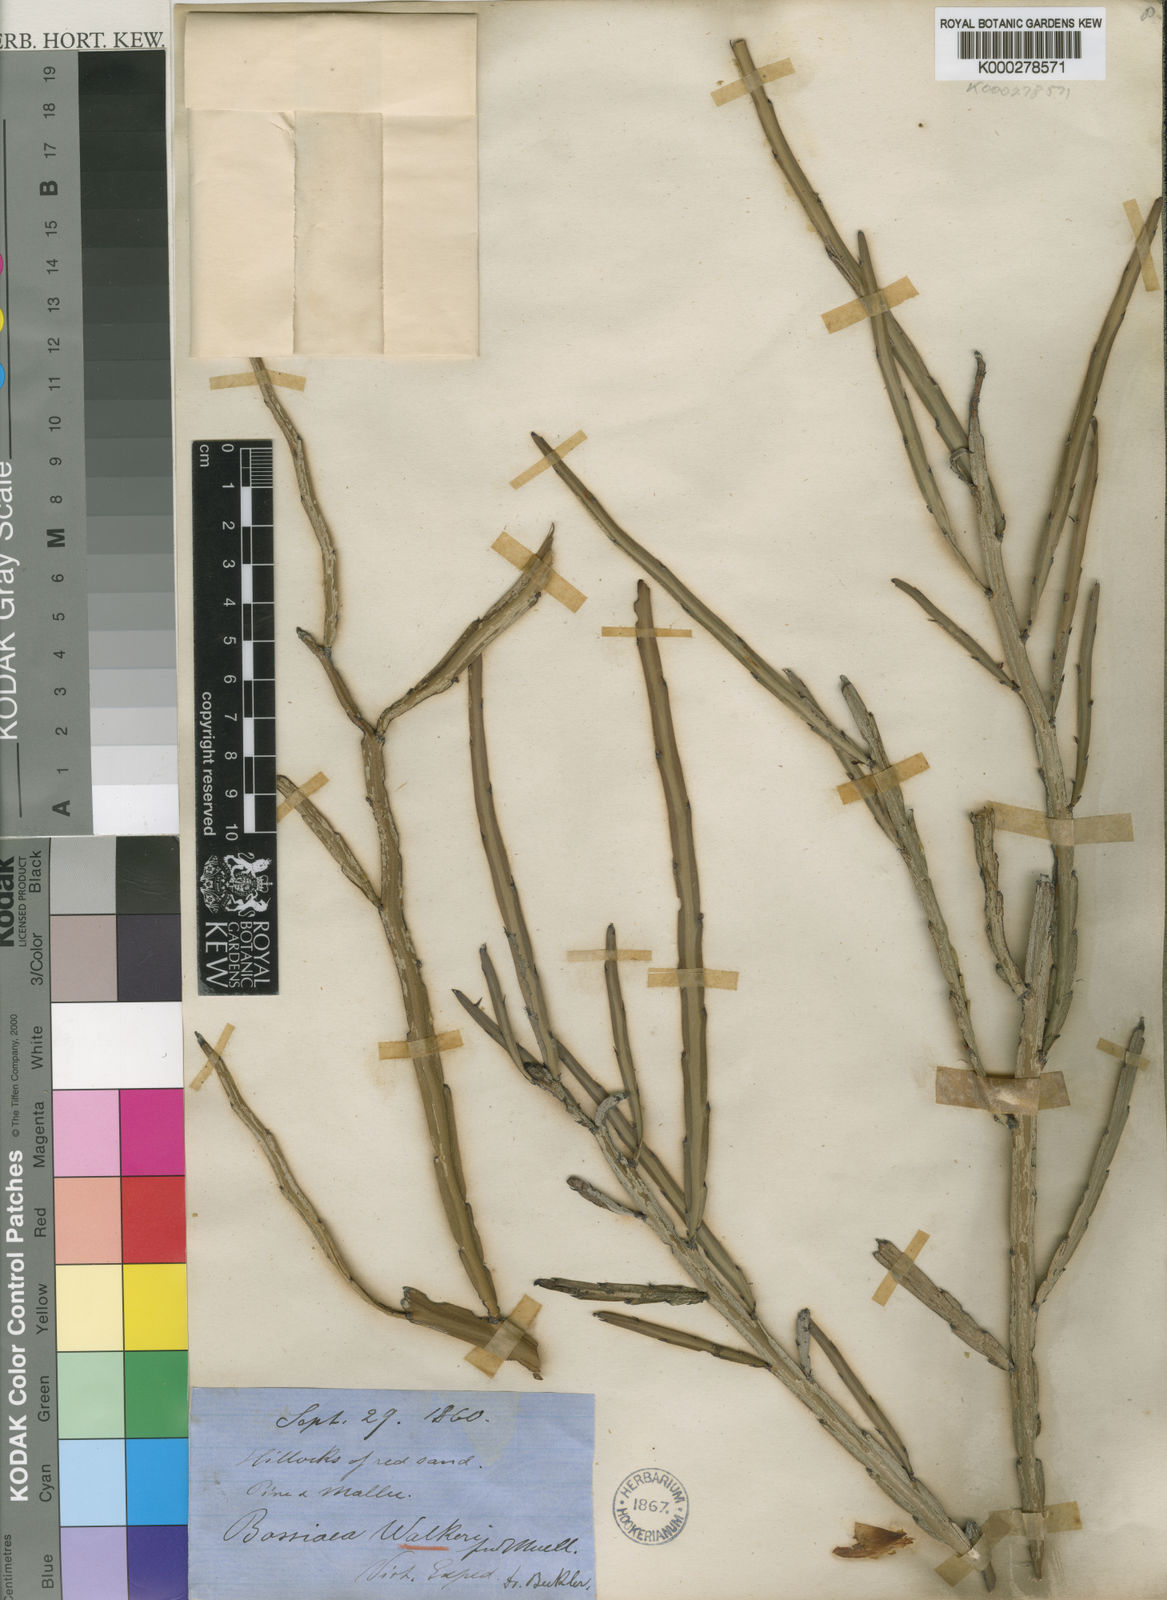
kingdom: Plantae
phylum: Tracheophyta
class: Magnoliopsida
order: Fabales
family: Fabaceae
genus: Bossiaea
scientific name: Bossiaea walkeri
